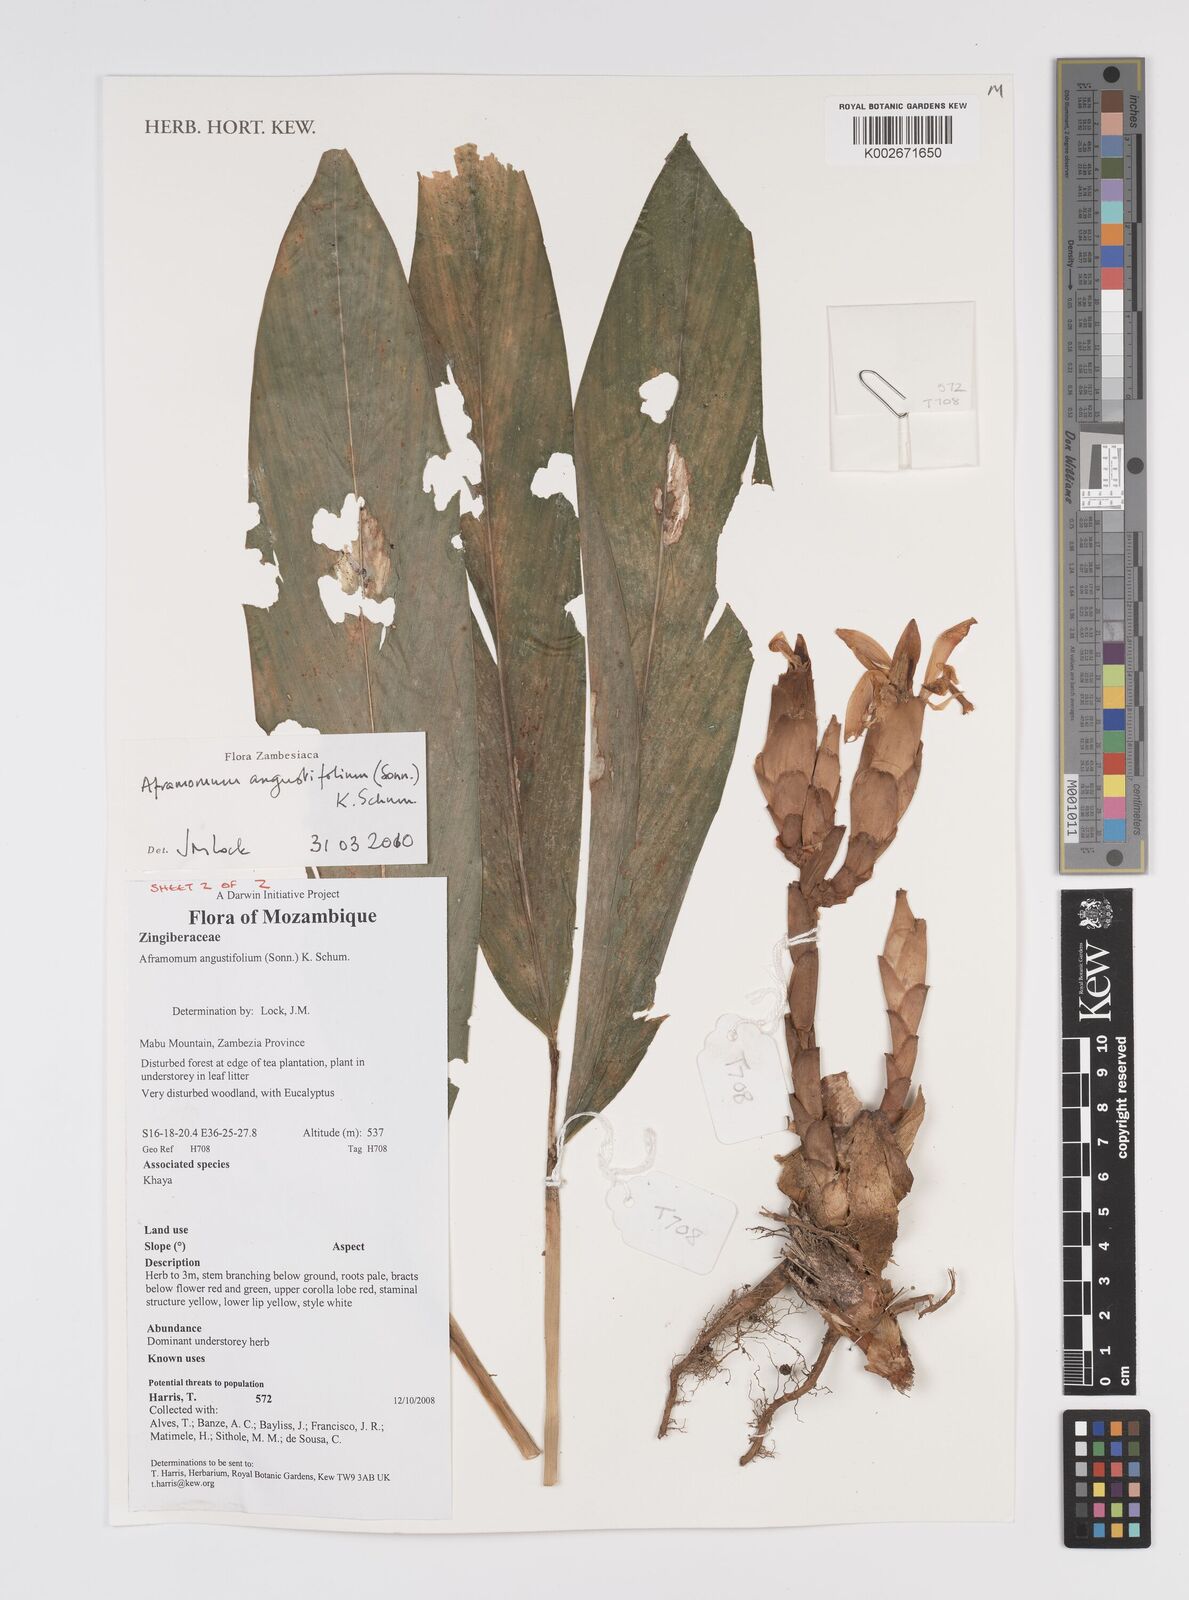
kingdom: Plantae
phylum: Tracheophyta
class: Liliopsida
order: Zingiberales
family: Zingiberaceae
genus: Aframomum
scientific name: Aframomum angustifolium
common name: Guinea grains
